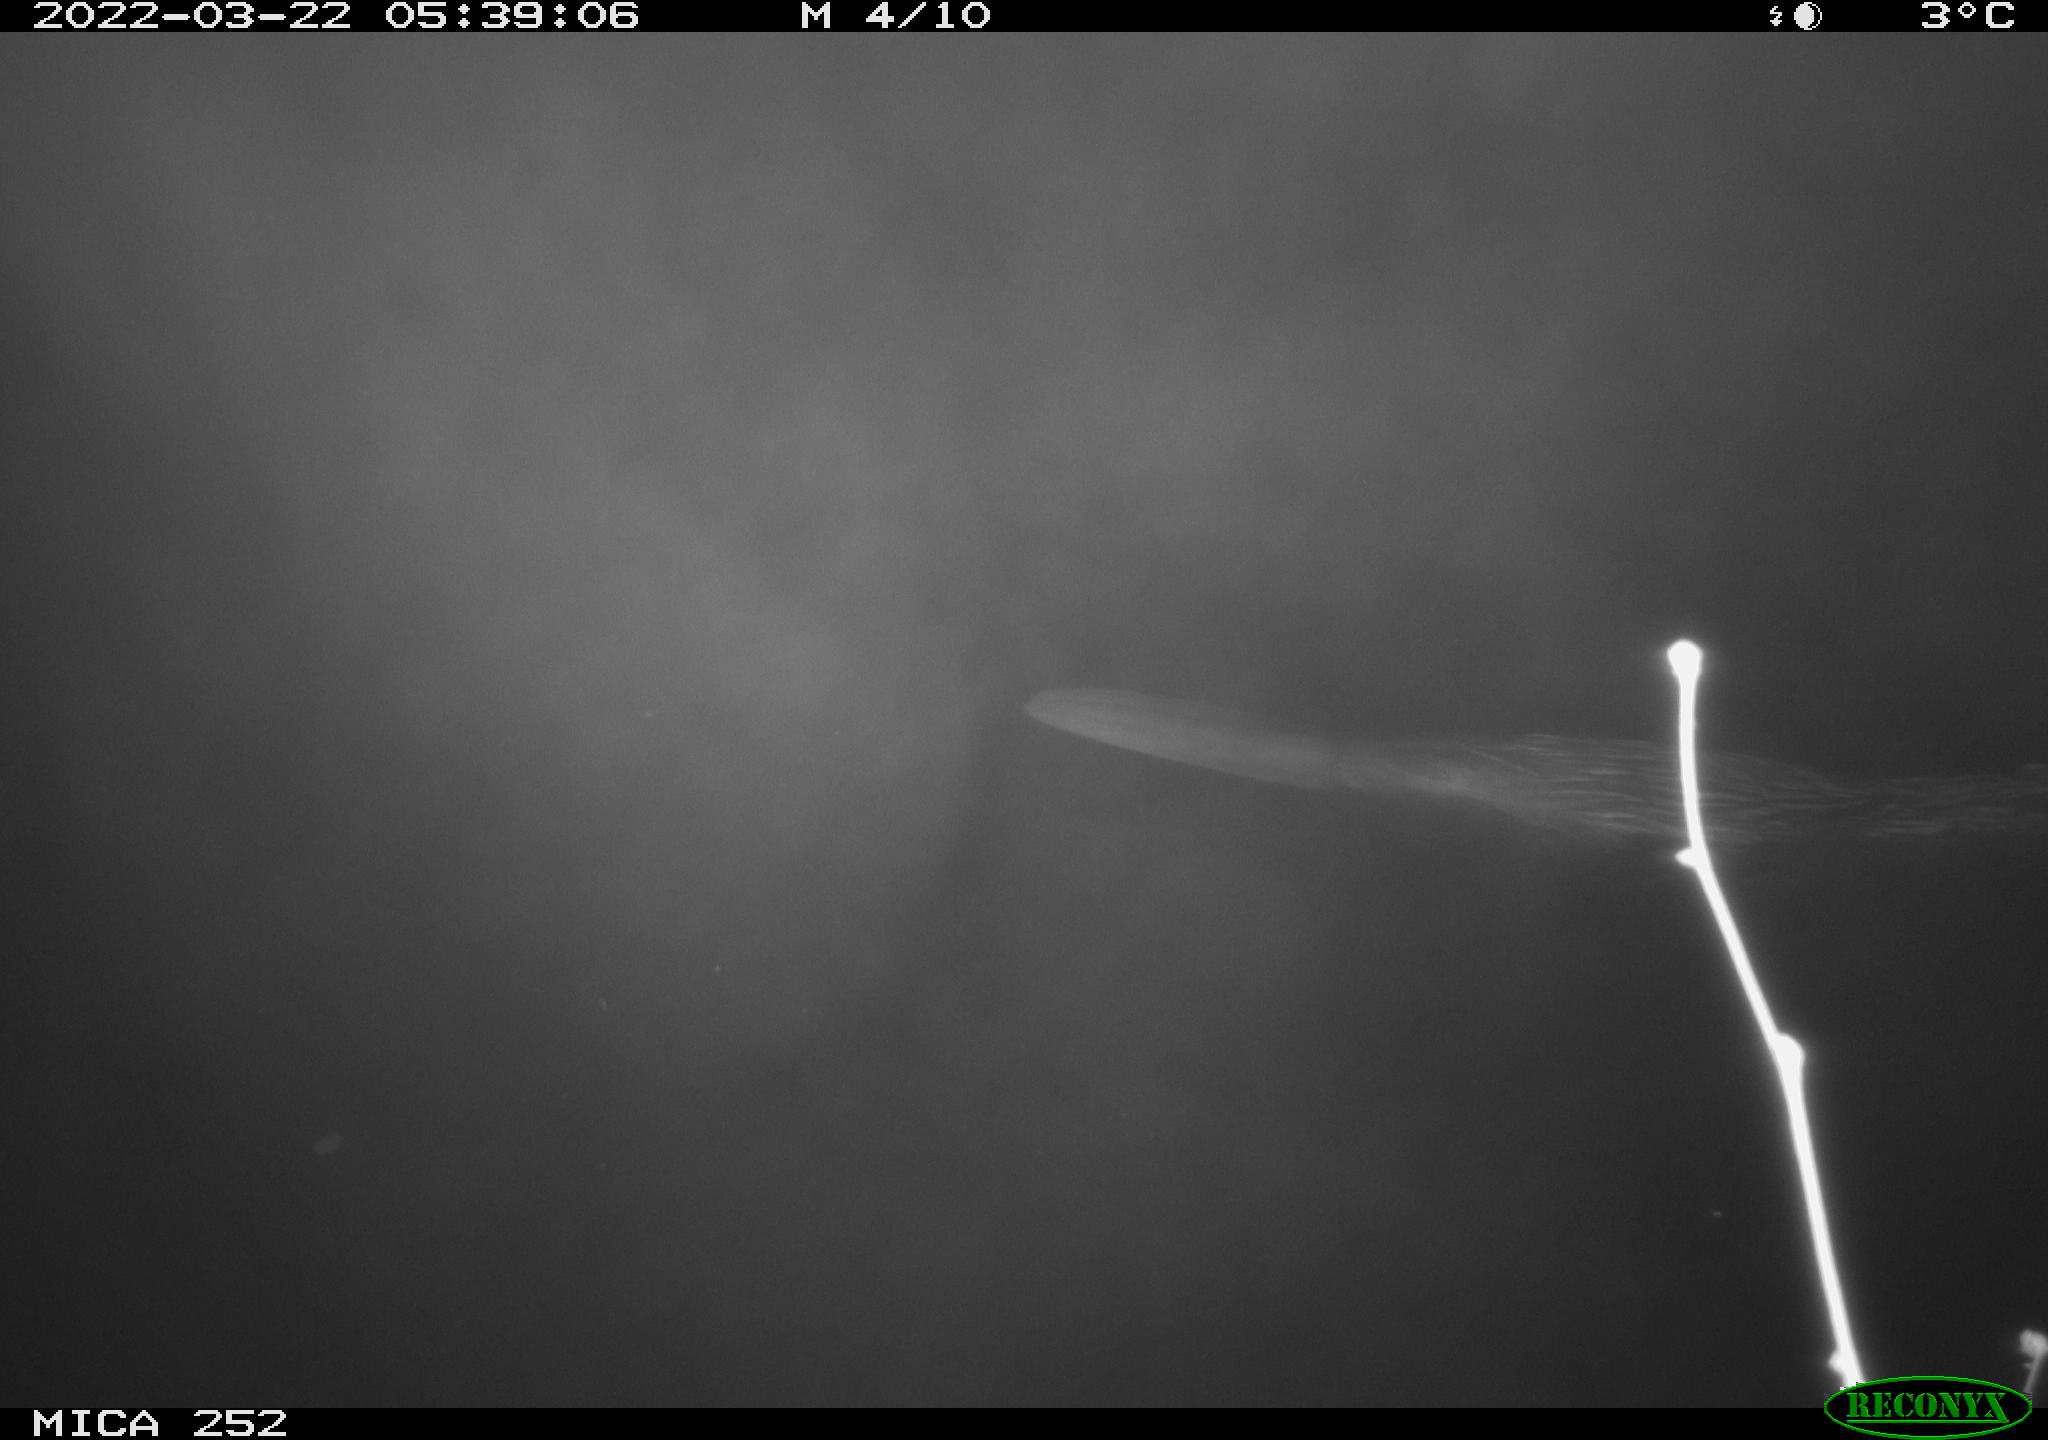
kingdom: Animalia
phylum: Chordata
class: Mammalia
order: Rodentia
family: Castoridae
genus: Castor
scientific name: Castor fiber
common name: Eurasian beaver
